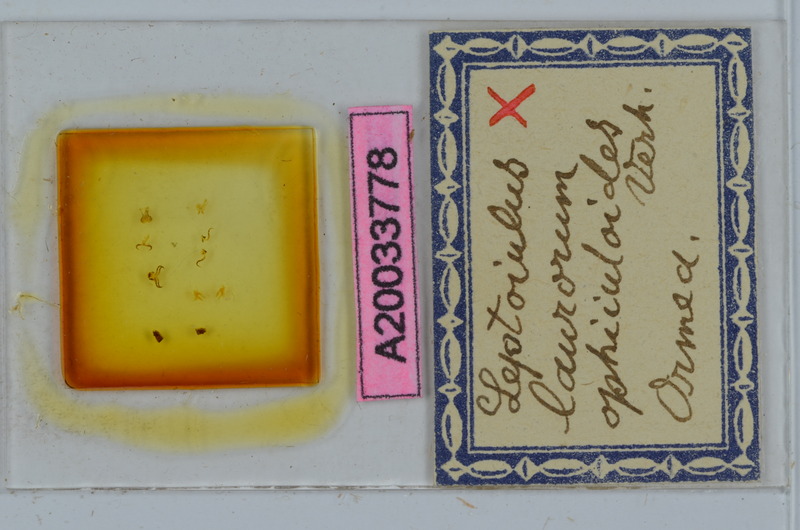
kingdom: Animalia
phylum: Arthropoda
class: Diplopoda
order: Julida
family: Julidae
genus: Leptoiulus
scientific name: Leptoiulus laurorum
